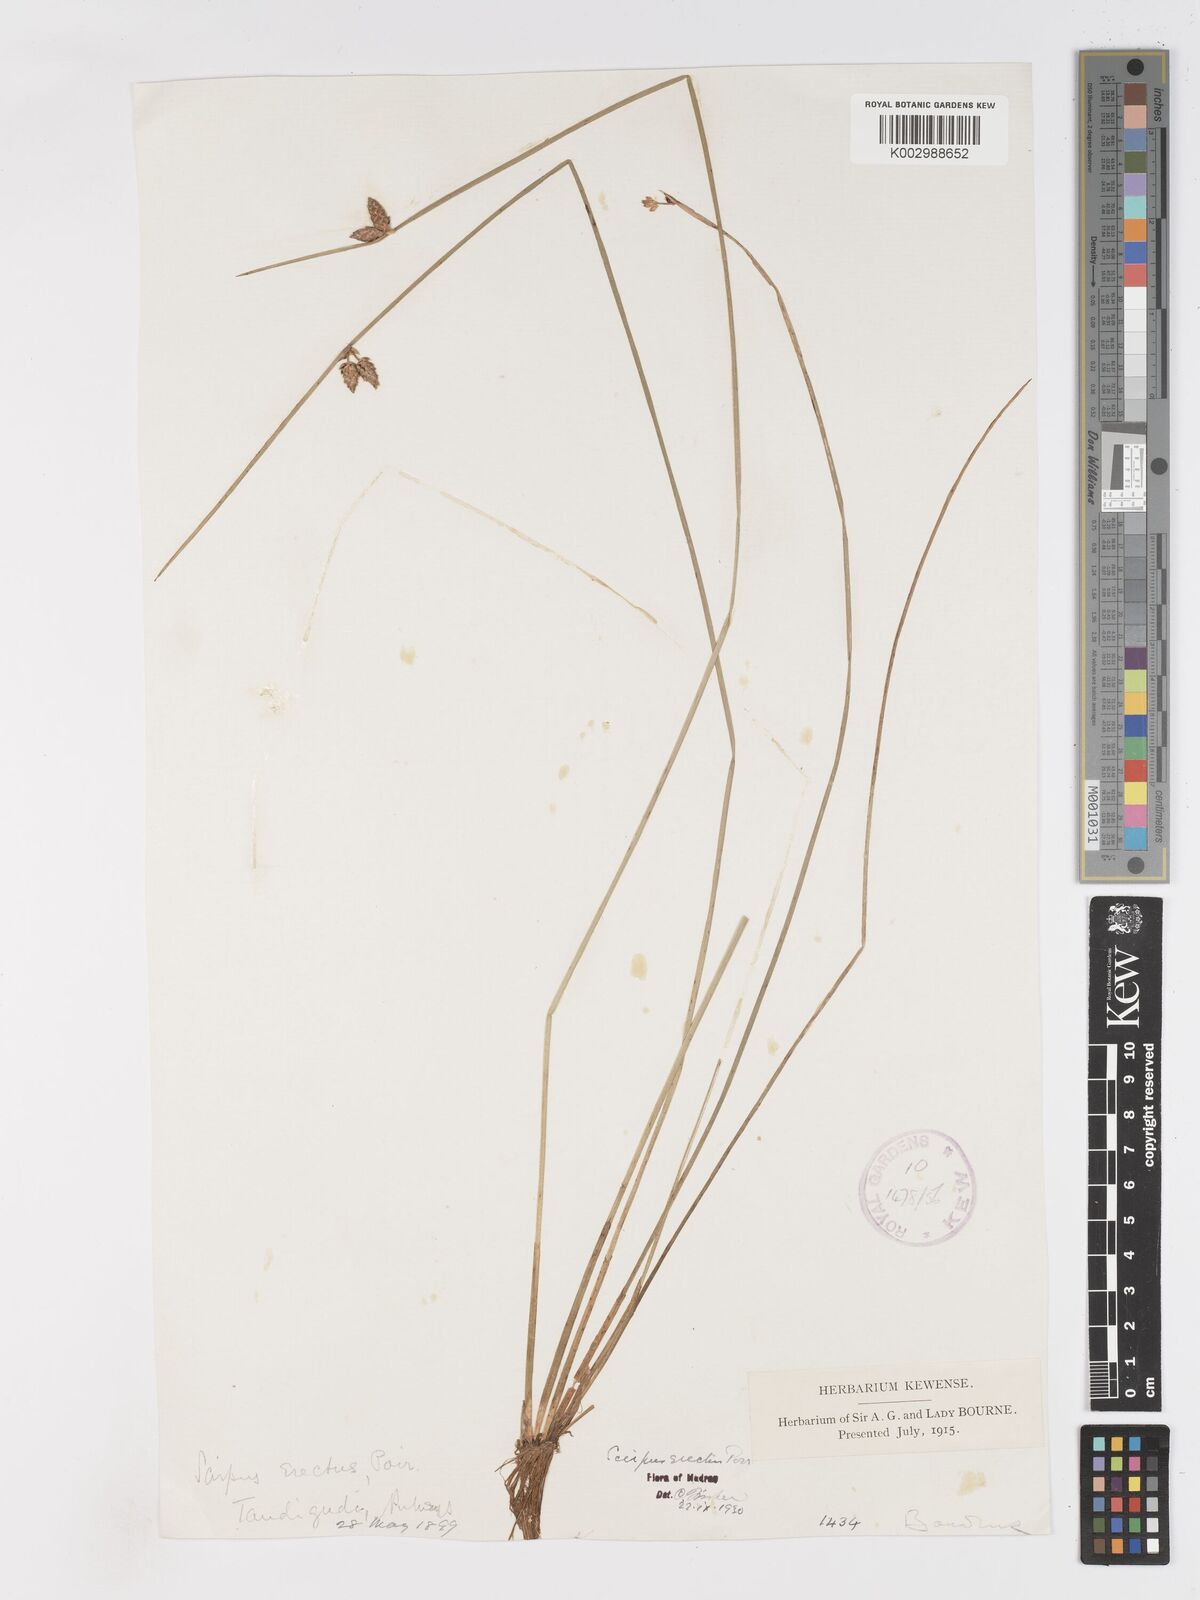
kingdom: Plantae
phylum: Tracheophyta
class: Liliopsida
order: Poales
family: Cyperaceae
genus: Schoenoplectiella
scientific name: Schoenoplectiella juncoides
